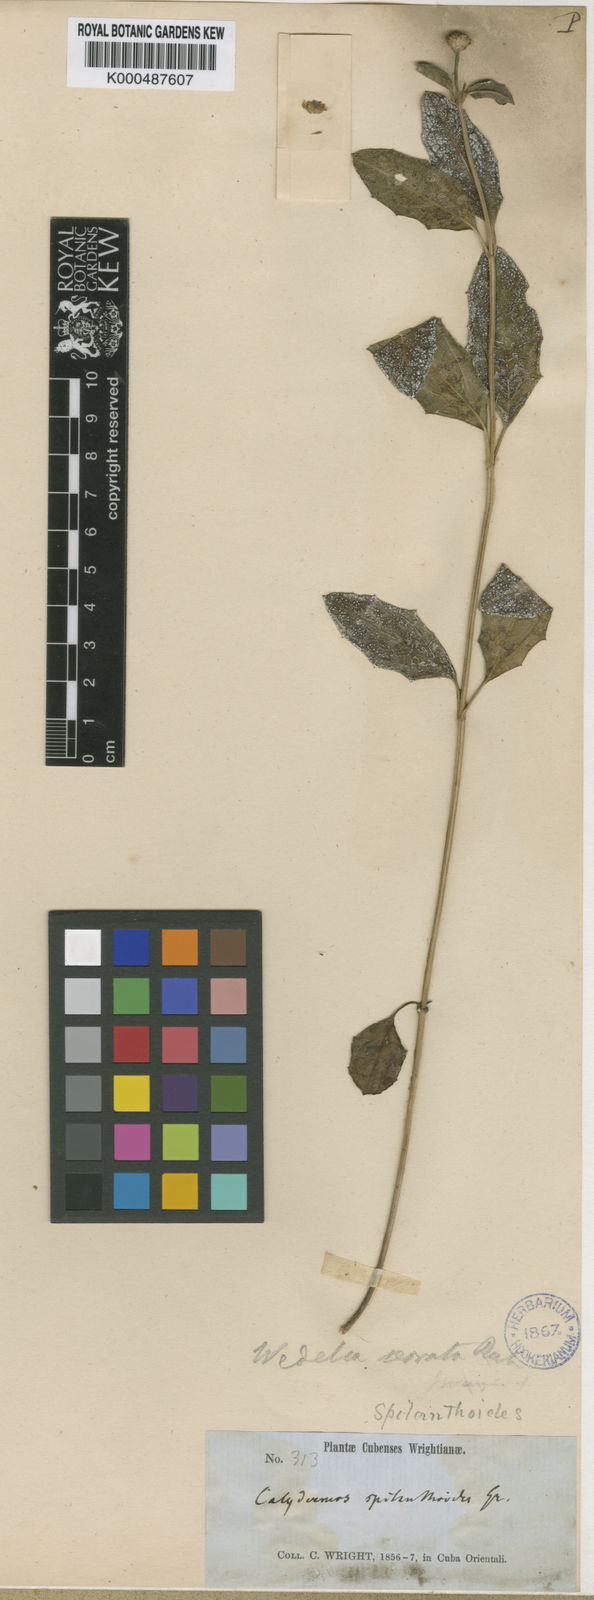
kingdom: Plantae
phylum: Tracheophyta
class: Magnoliopsida
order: Asterales
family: Asteraceae
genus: Wedelia
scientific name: Wedelia serrata
